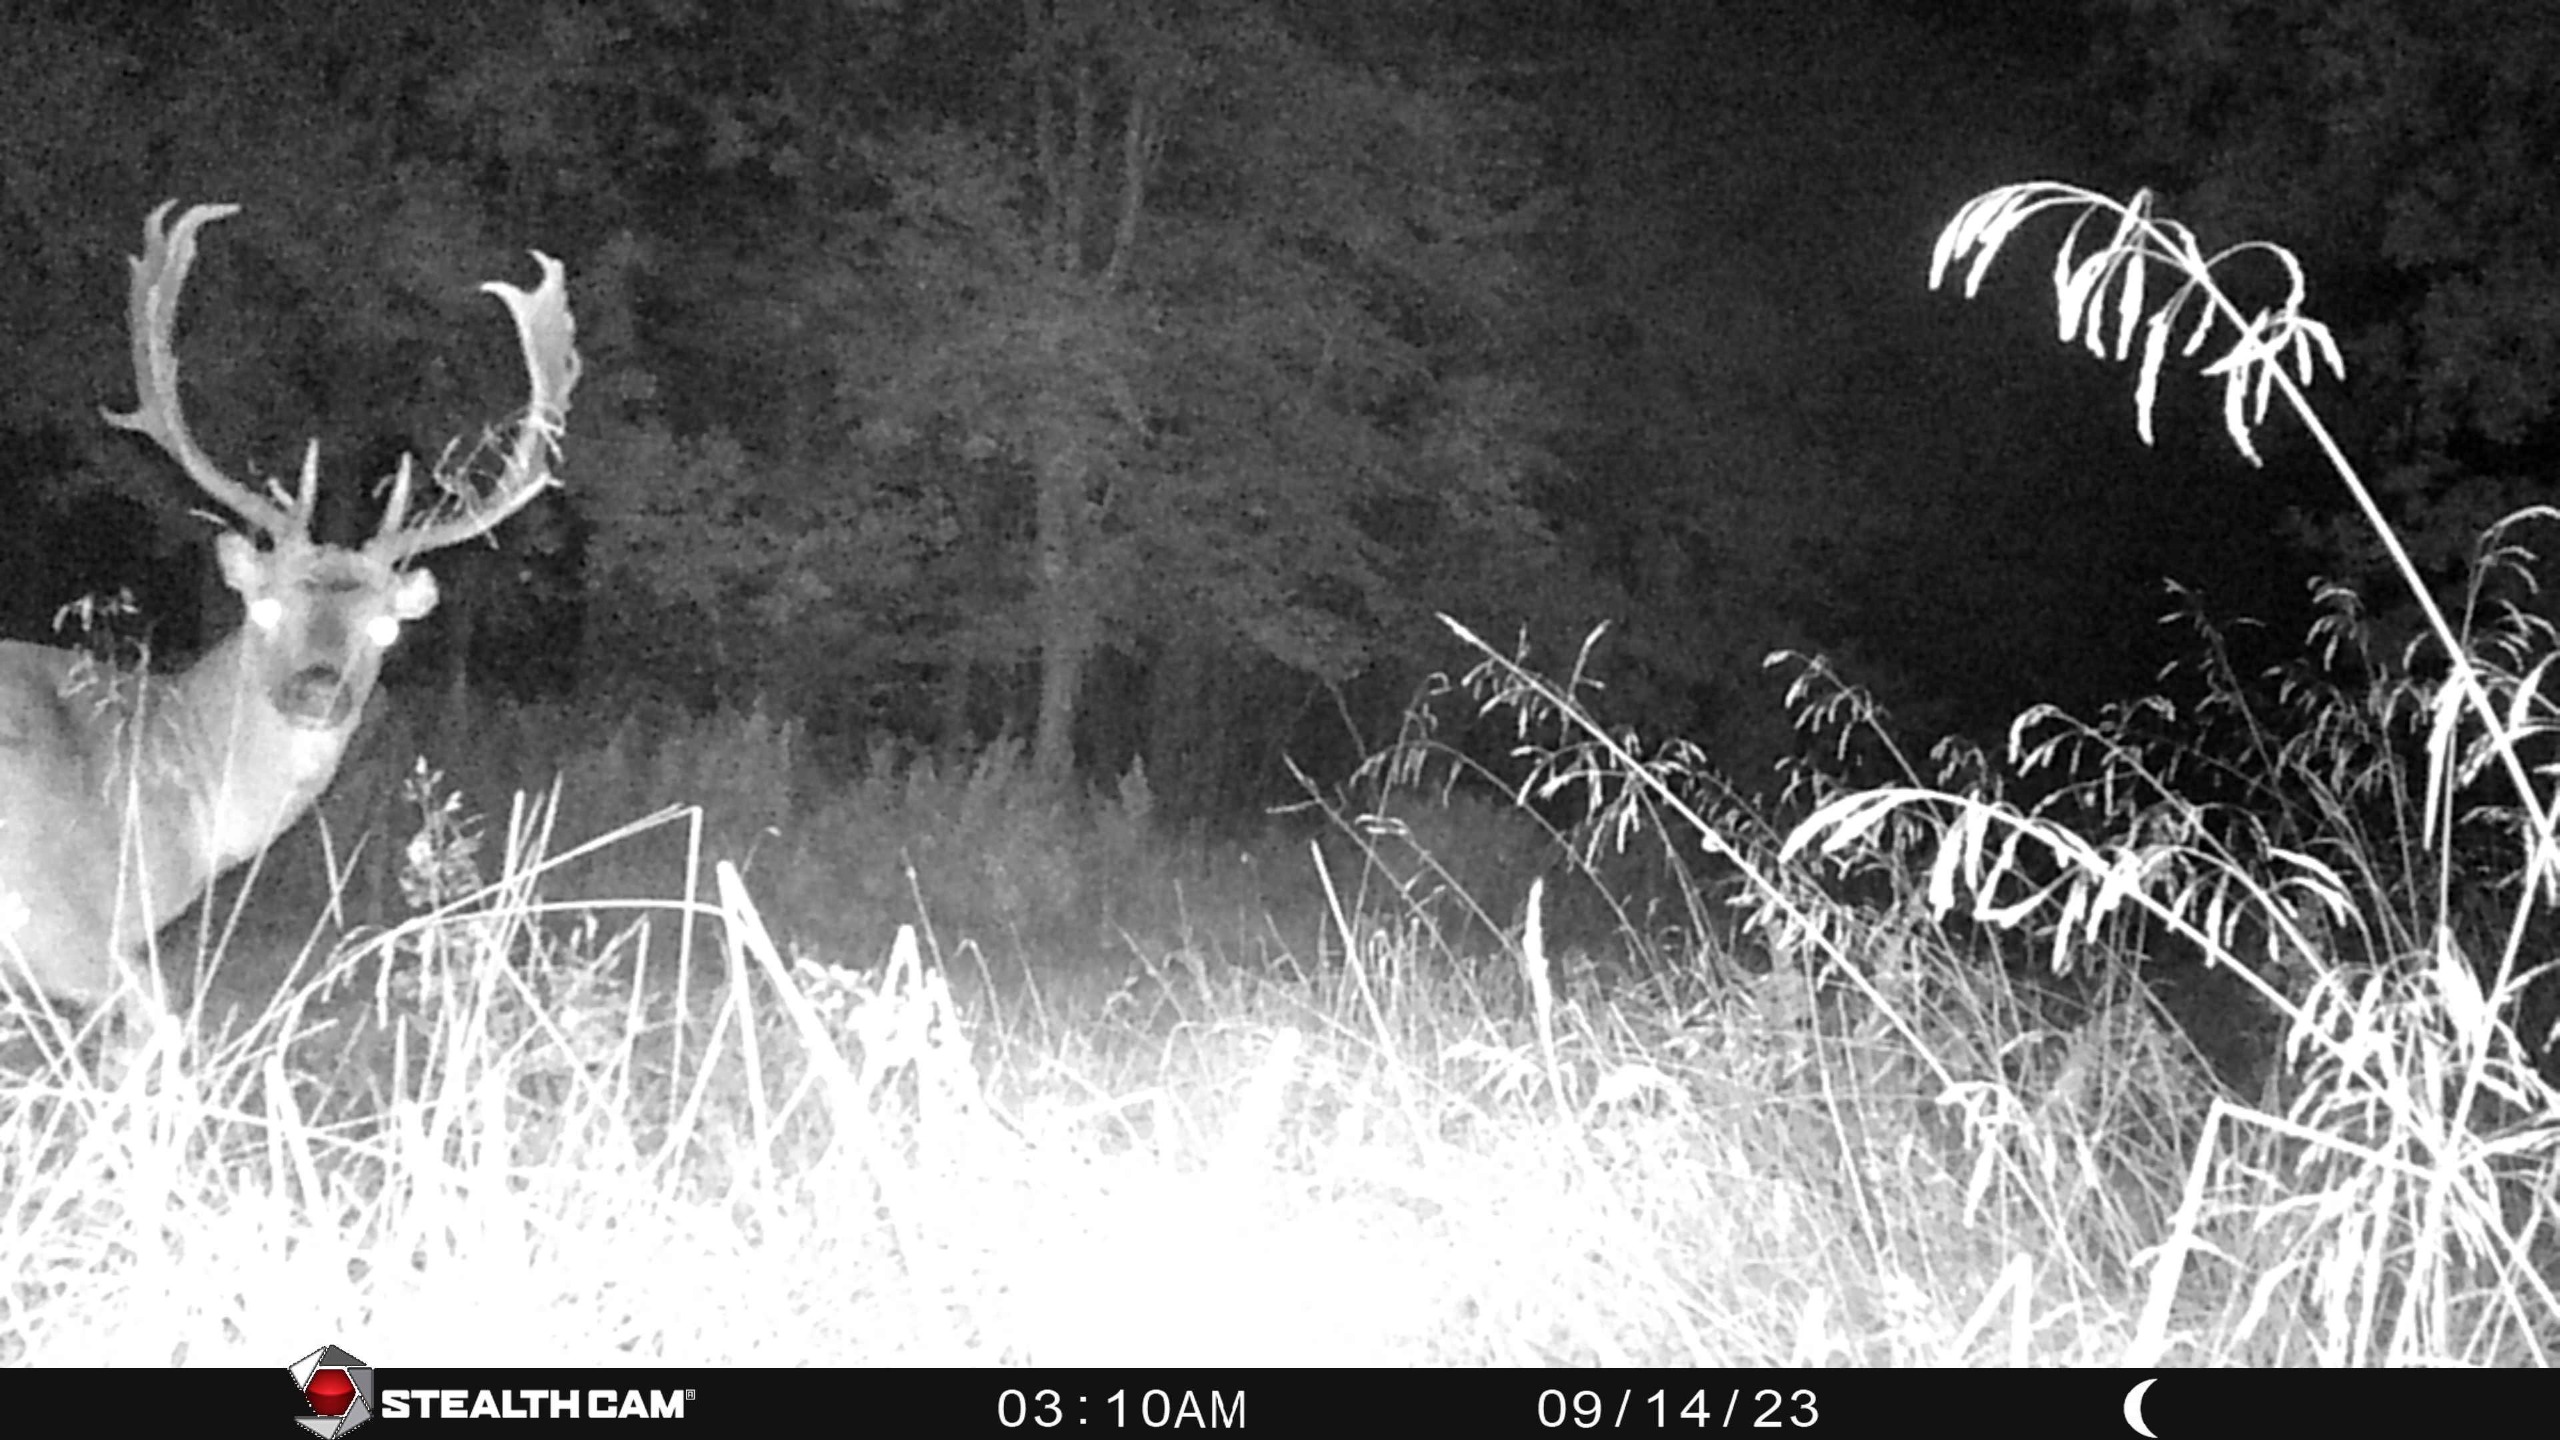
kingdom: Animalia
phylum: Chordata
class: Mammalia
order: Artiodactyla
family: Cervidae
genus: Dama
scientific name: Dama dama
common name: Dådyr
